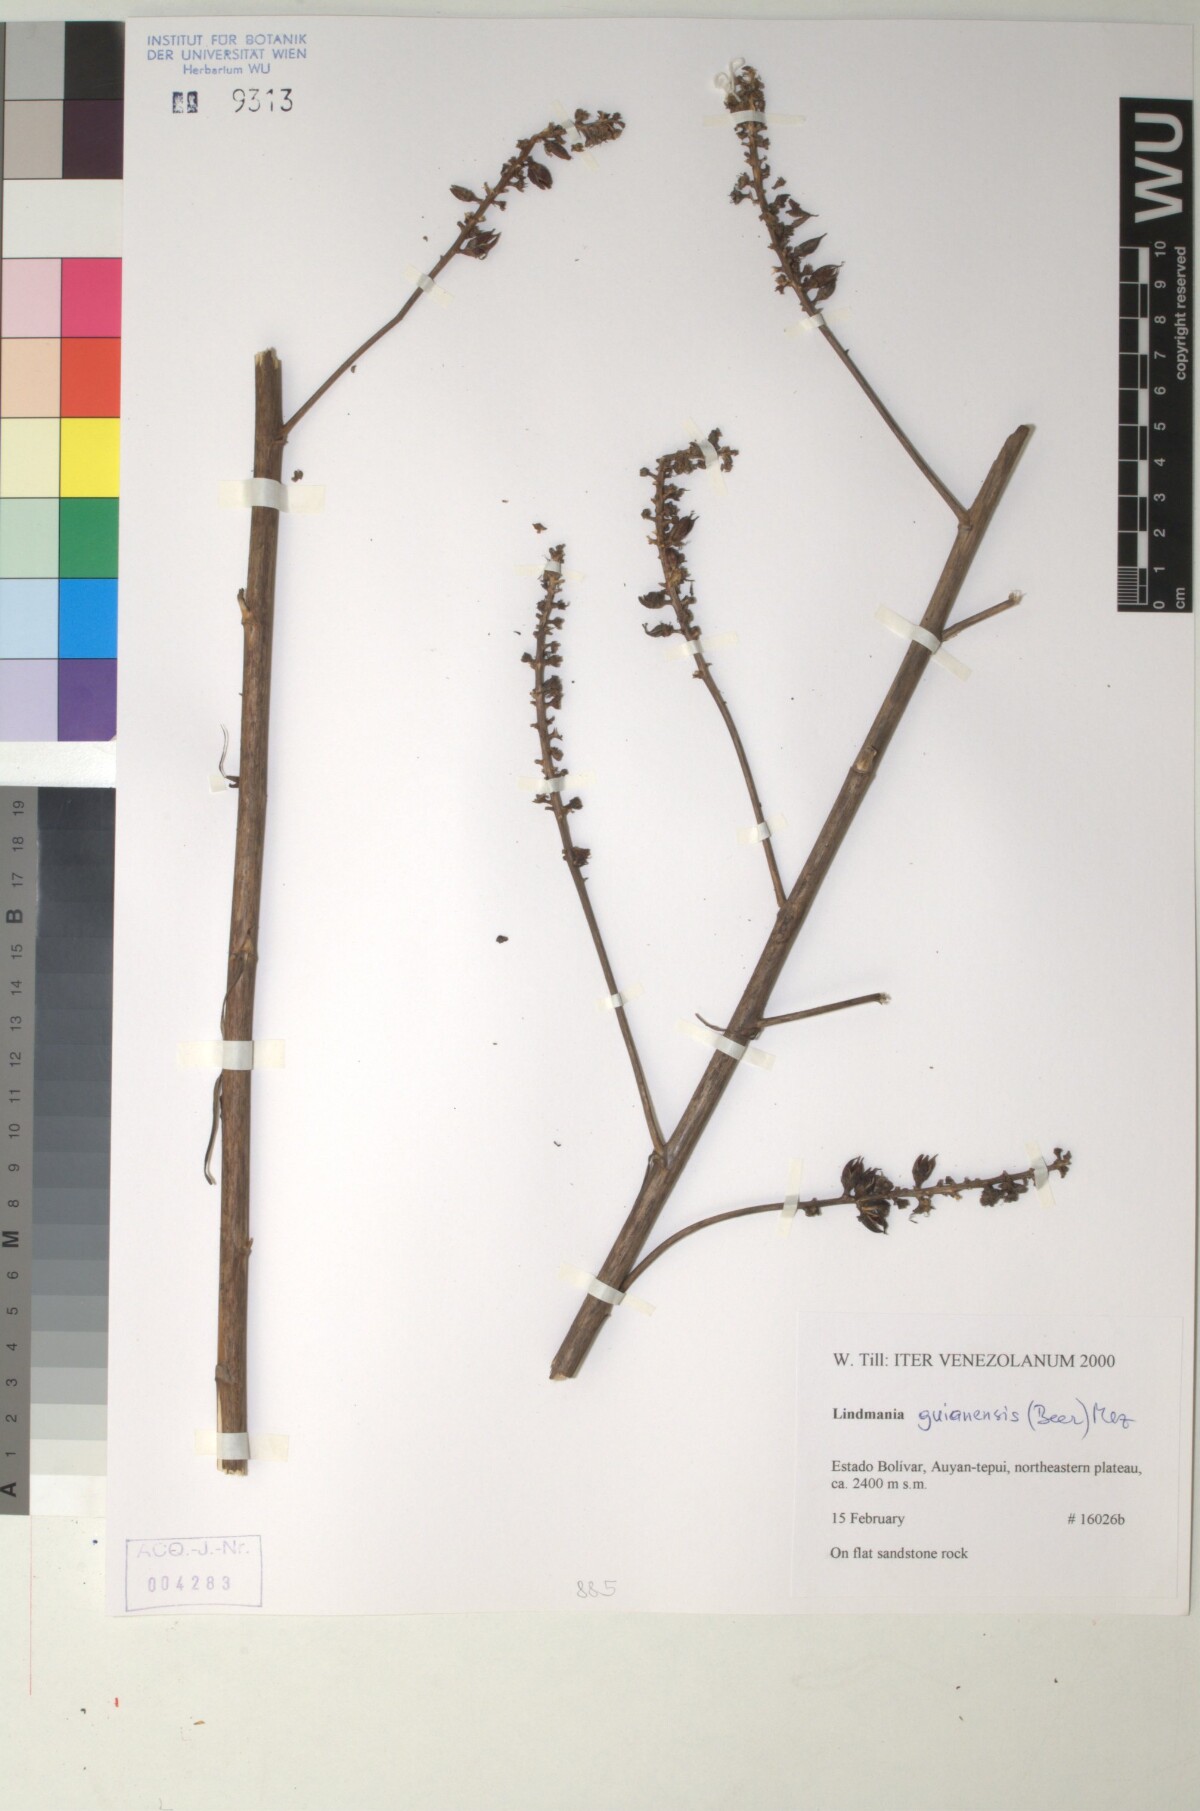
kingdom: Plantae
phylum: Tracheophyta
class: Liliopsida
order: Poales
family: Bromeliaceae
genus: Lindmania
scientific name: Lindmania guianensis
